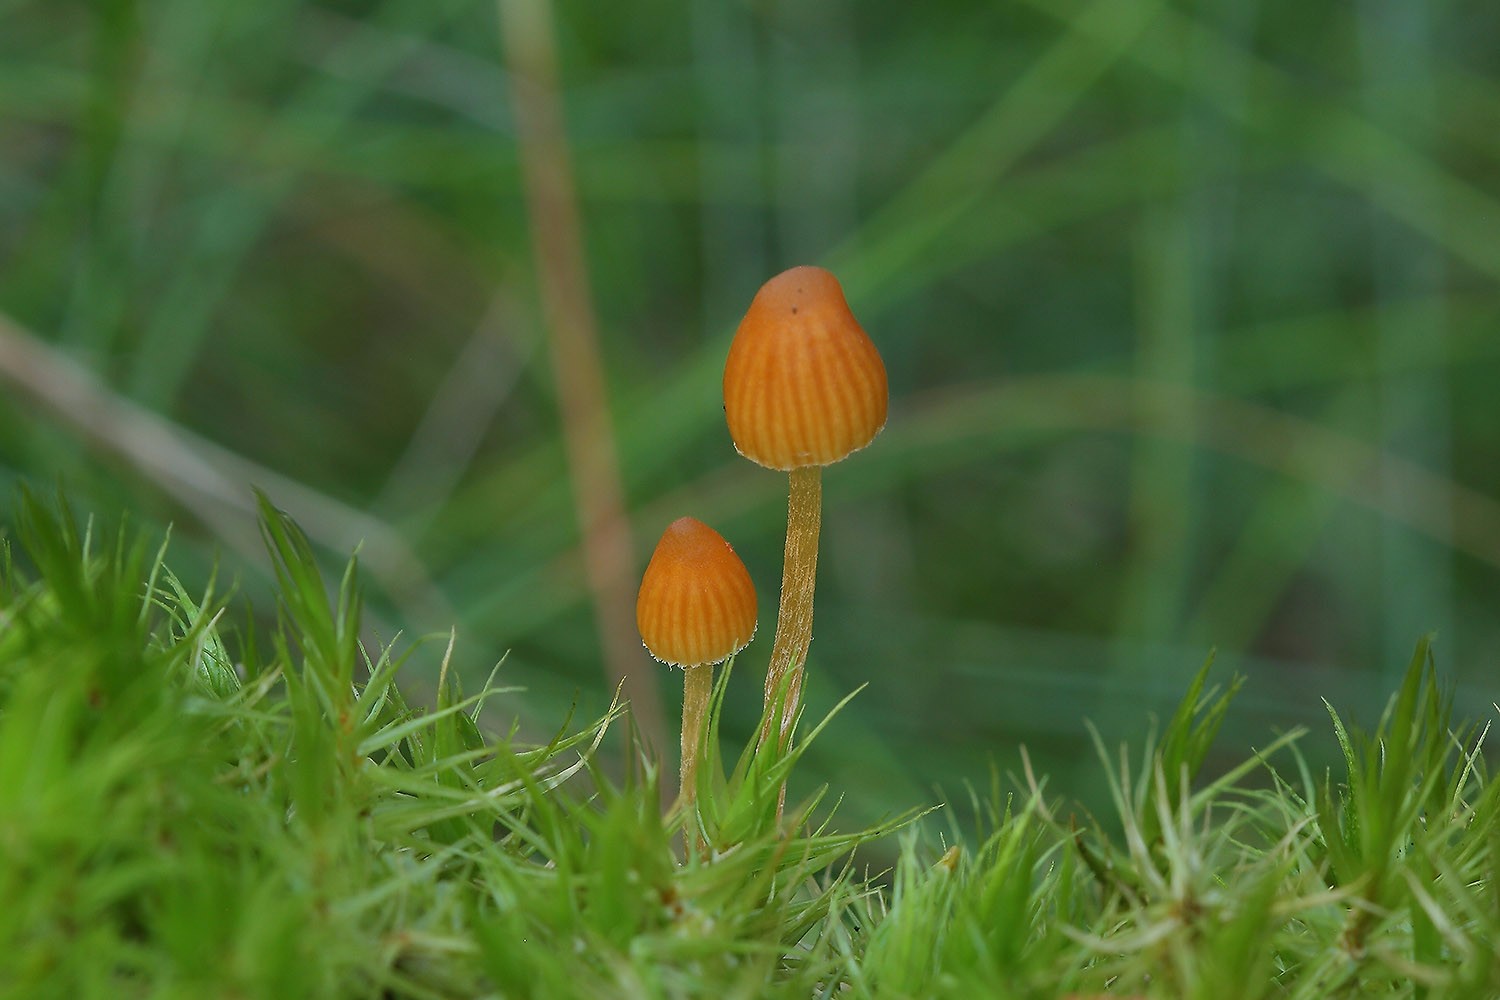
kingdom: Fungi
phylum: Basidiomycota
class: Agaricomycetes
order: Agaricales
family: Hymenogastraceae
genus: Galerina
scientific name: Galerina calyptrata
